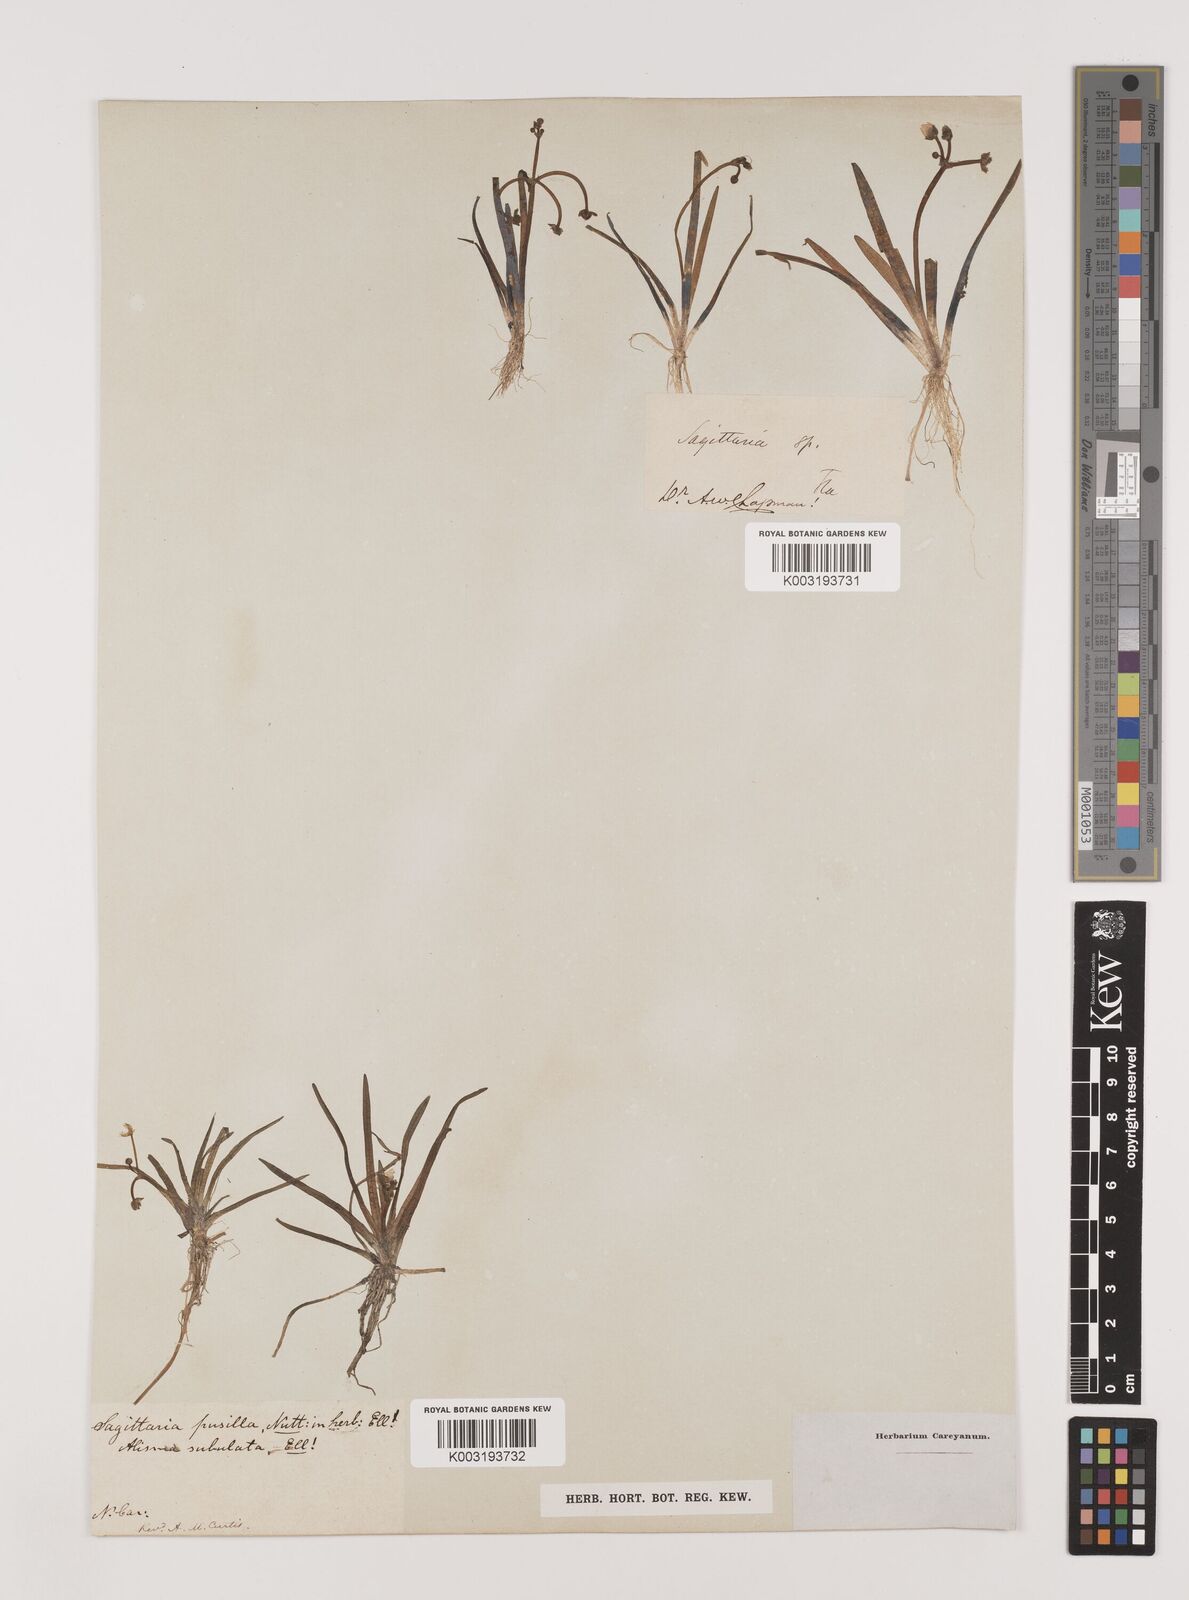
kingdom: Plantae
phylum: Tracheophyta
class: Liliopsida
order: Alismatales
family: Alismataceae
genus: Sagittaria
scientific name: Sagittaria subulata
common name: Narrow-leaved arrowhead
